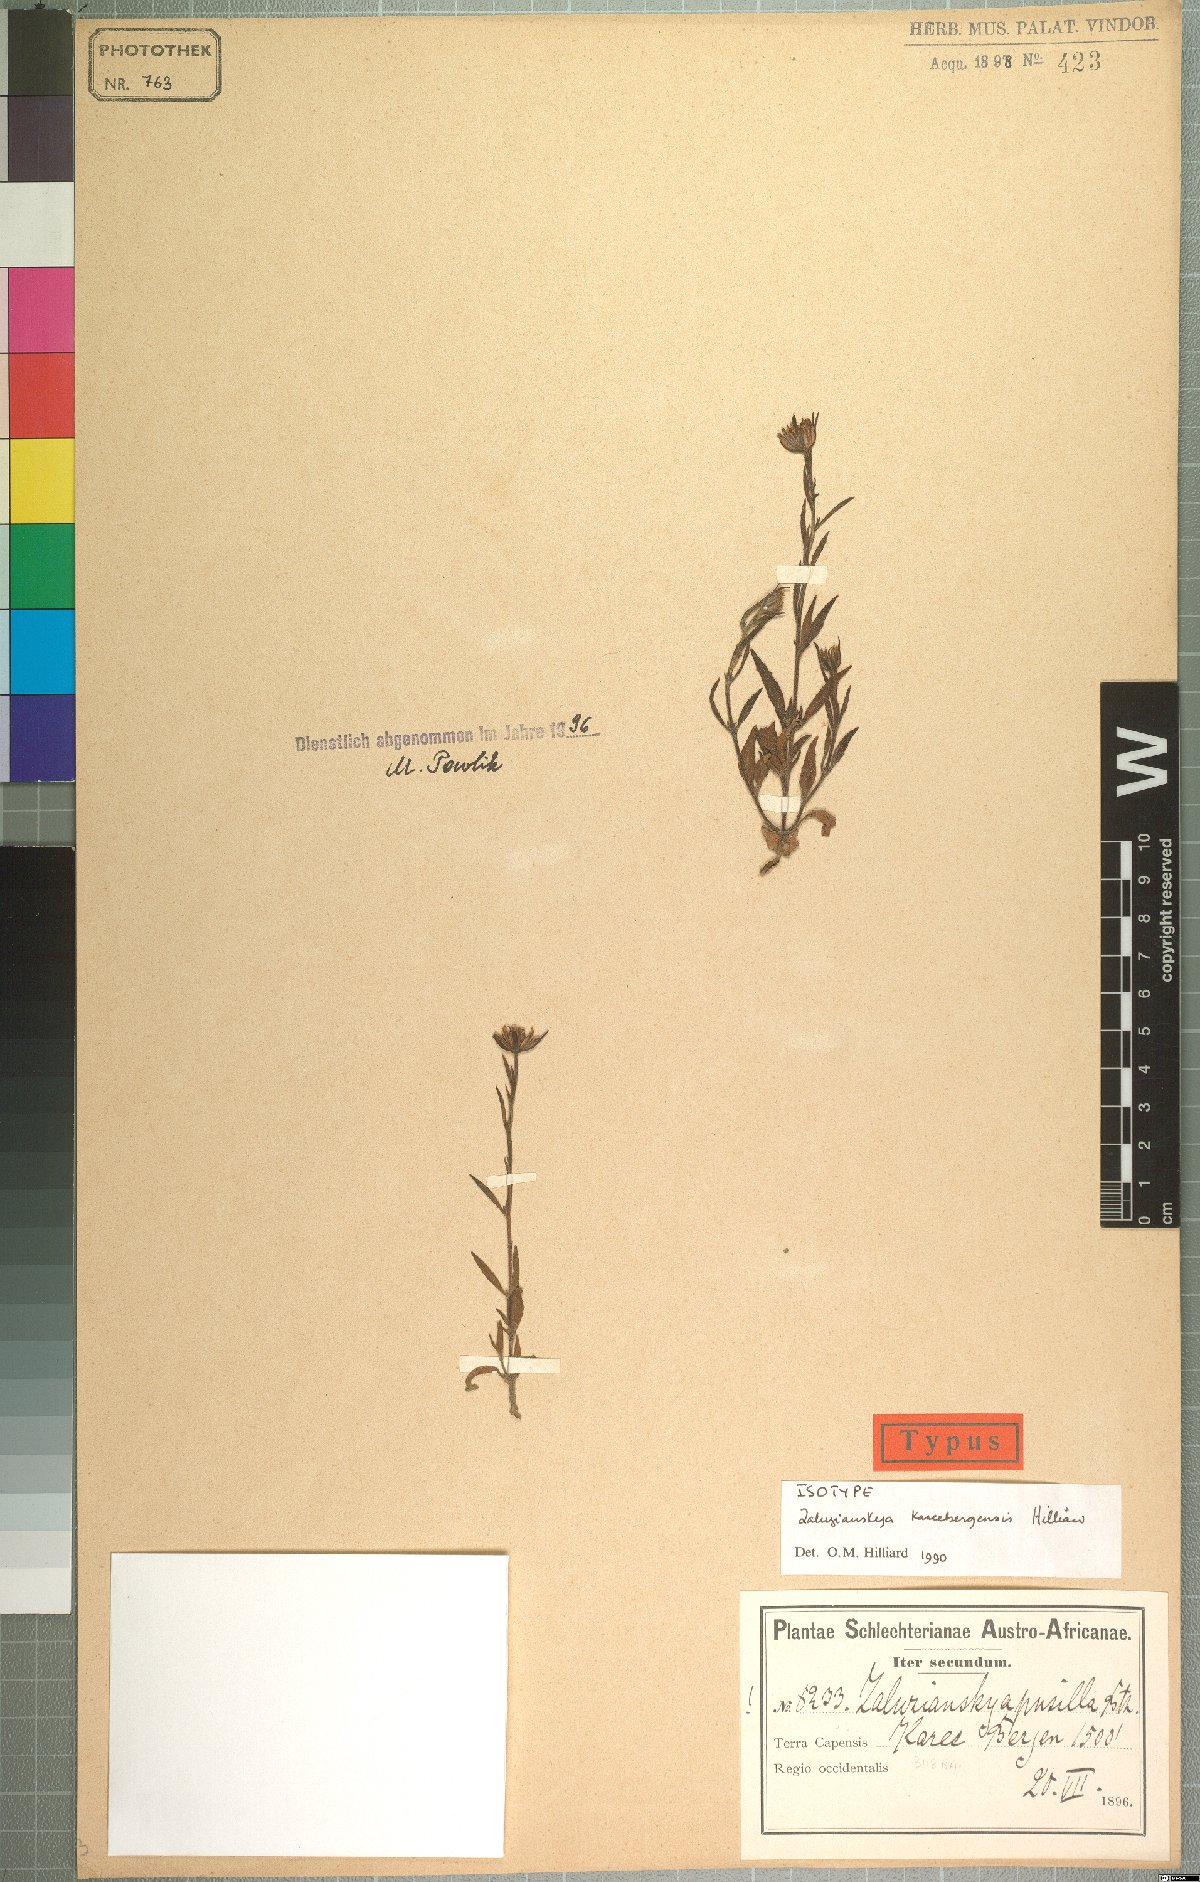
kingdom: Plantae
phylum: Tracheophyta
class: Magnoliopsida
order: Lamiales
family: Scrophulariaceae
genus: Zaluzianskya
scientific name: Zaluzianskya kareebergensis
